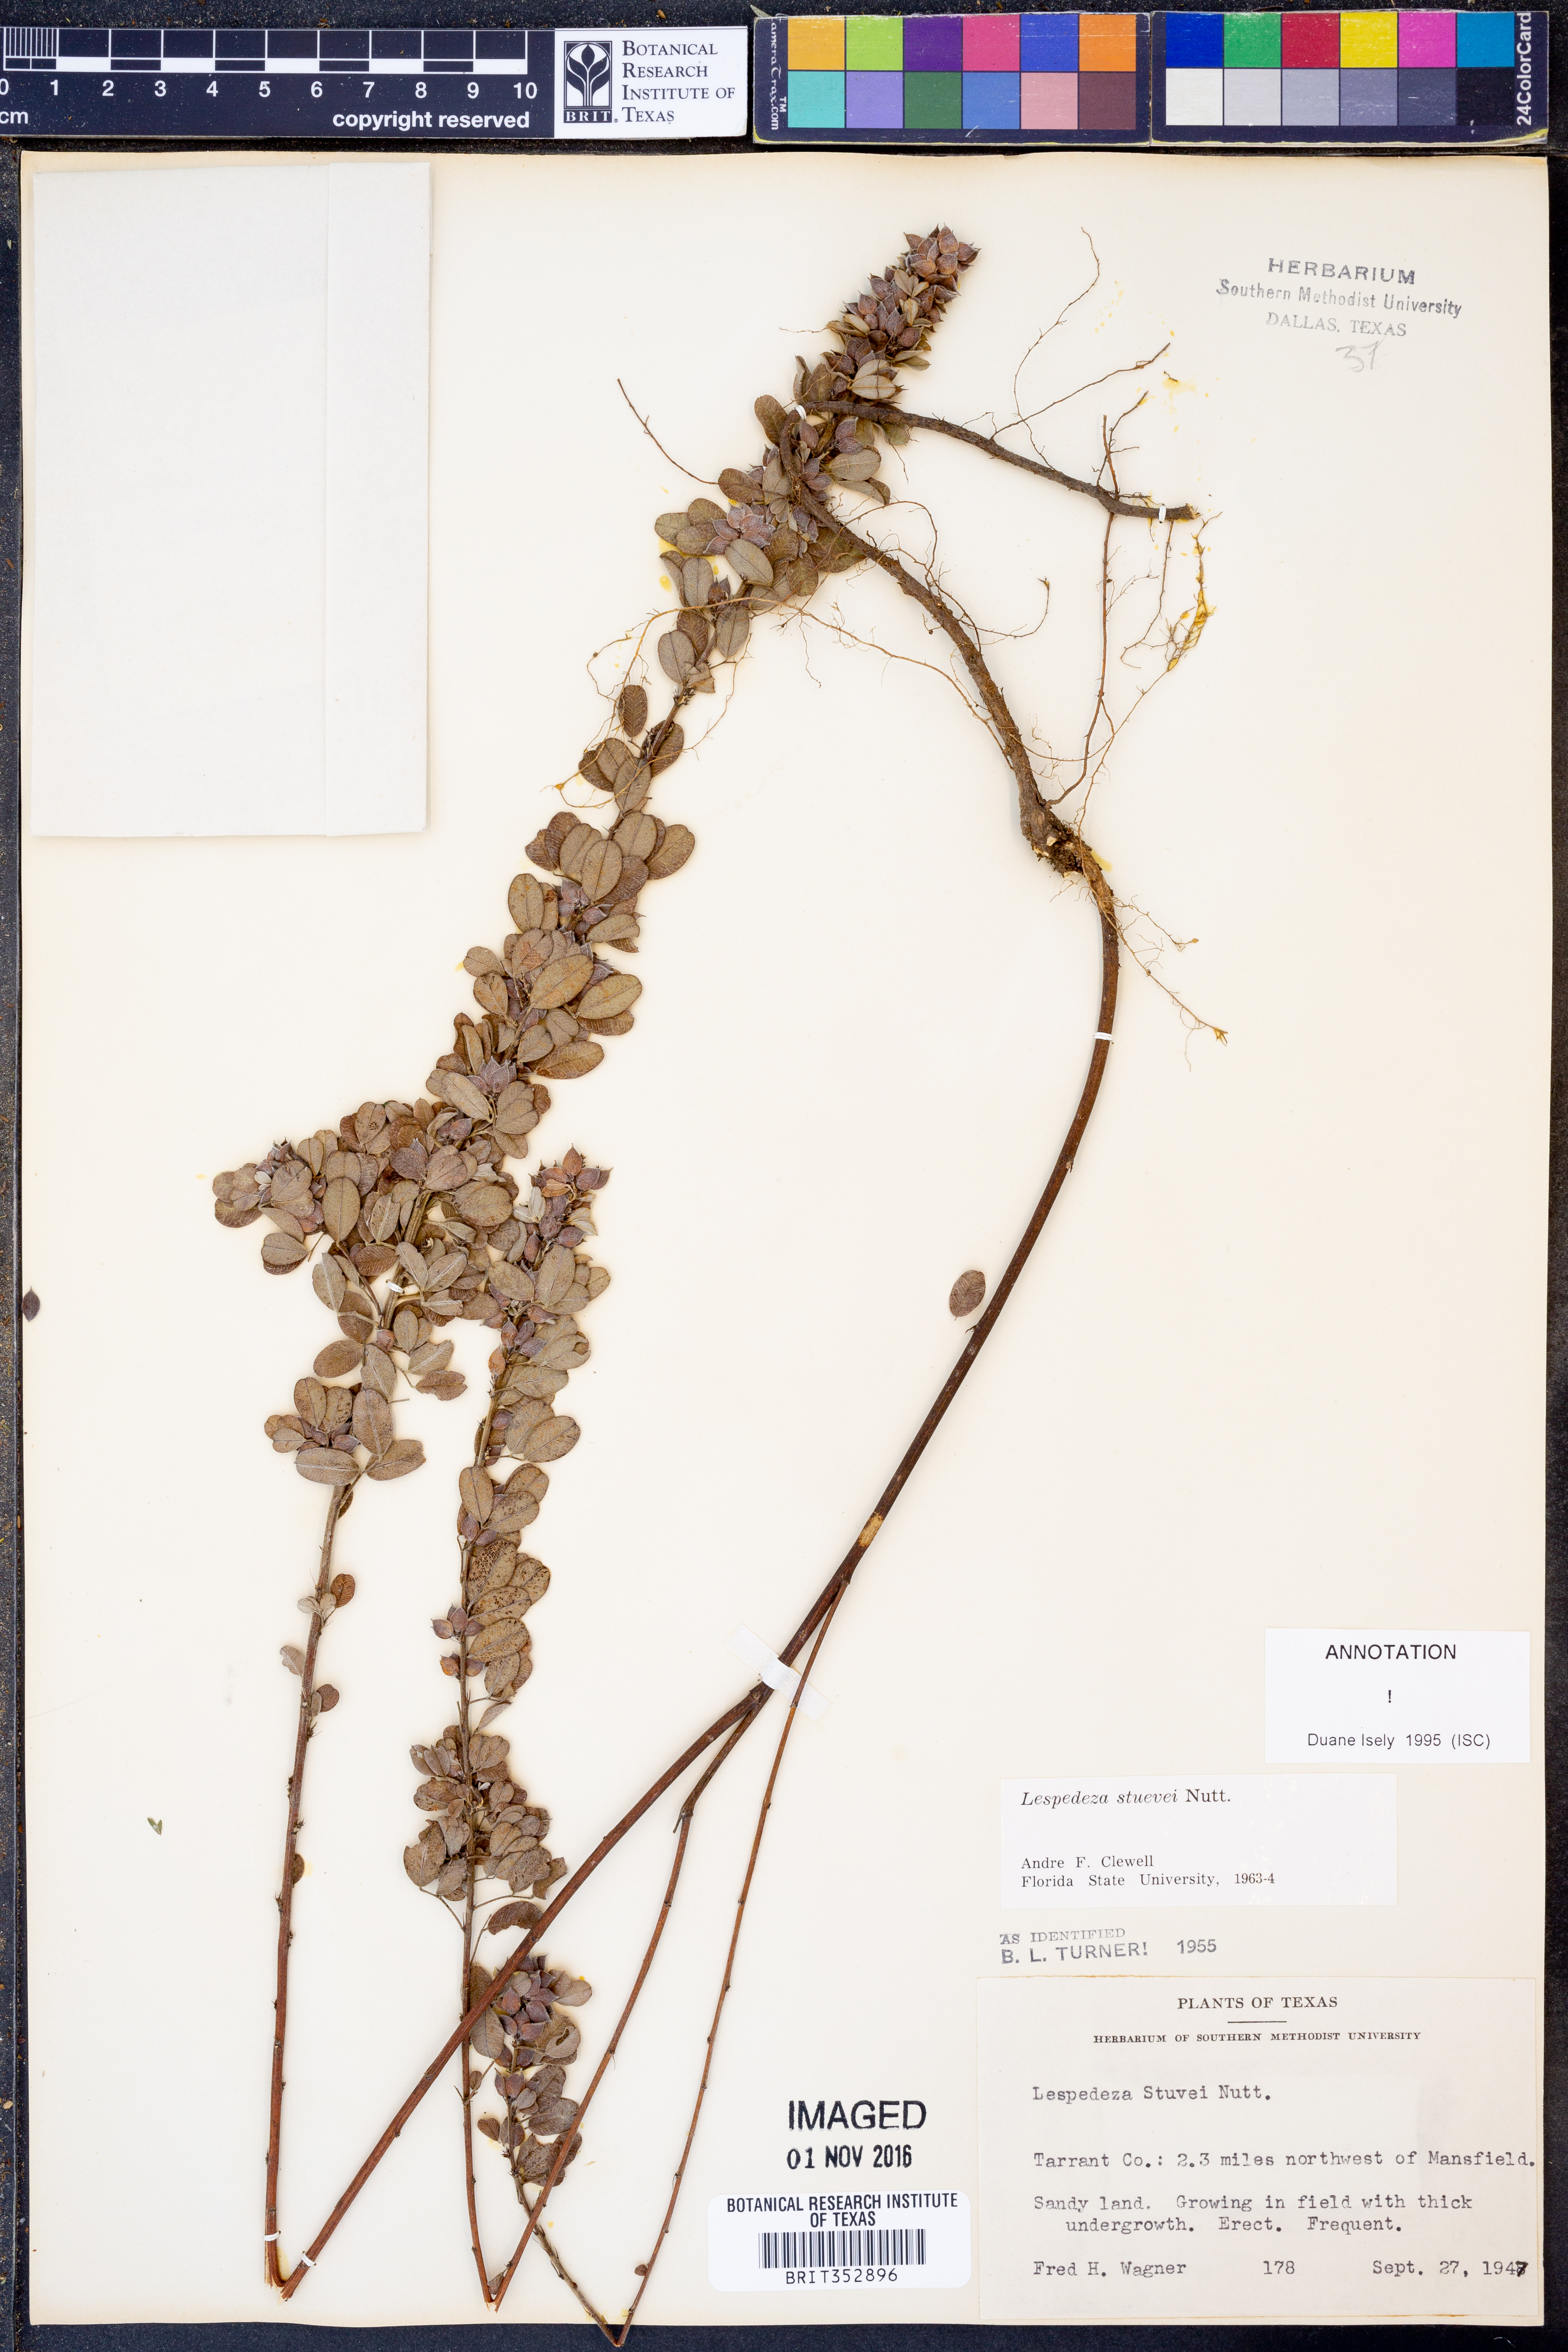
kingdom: Plantae
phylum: Tracheophyta
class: Magnoliopsida
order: Fabales
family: Fabaceae
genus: Lespedeza
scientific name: Lespedeza stuevei
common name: Tall bush-clover
